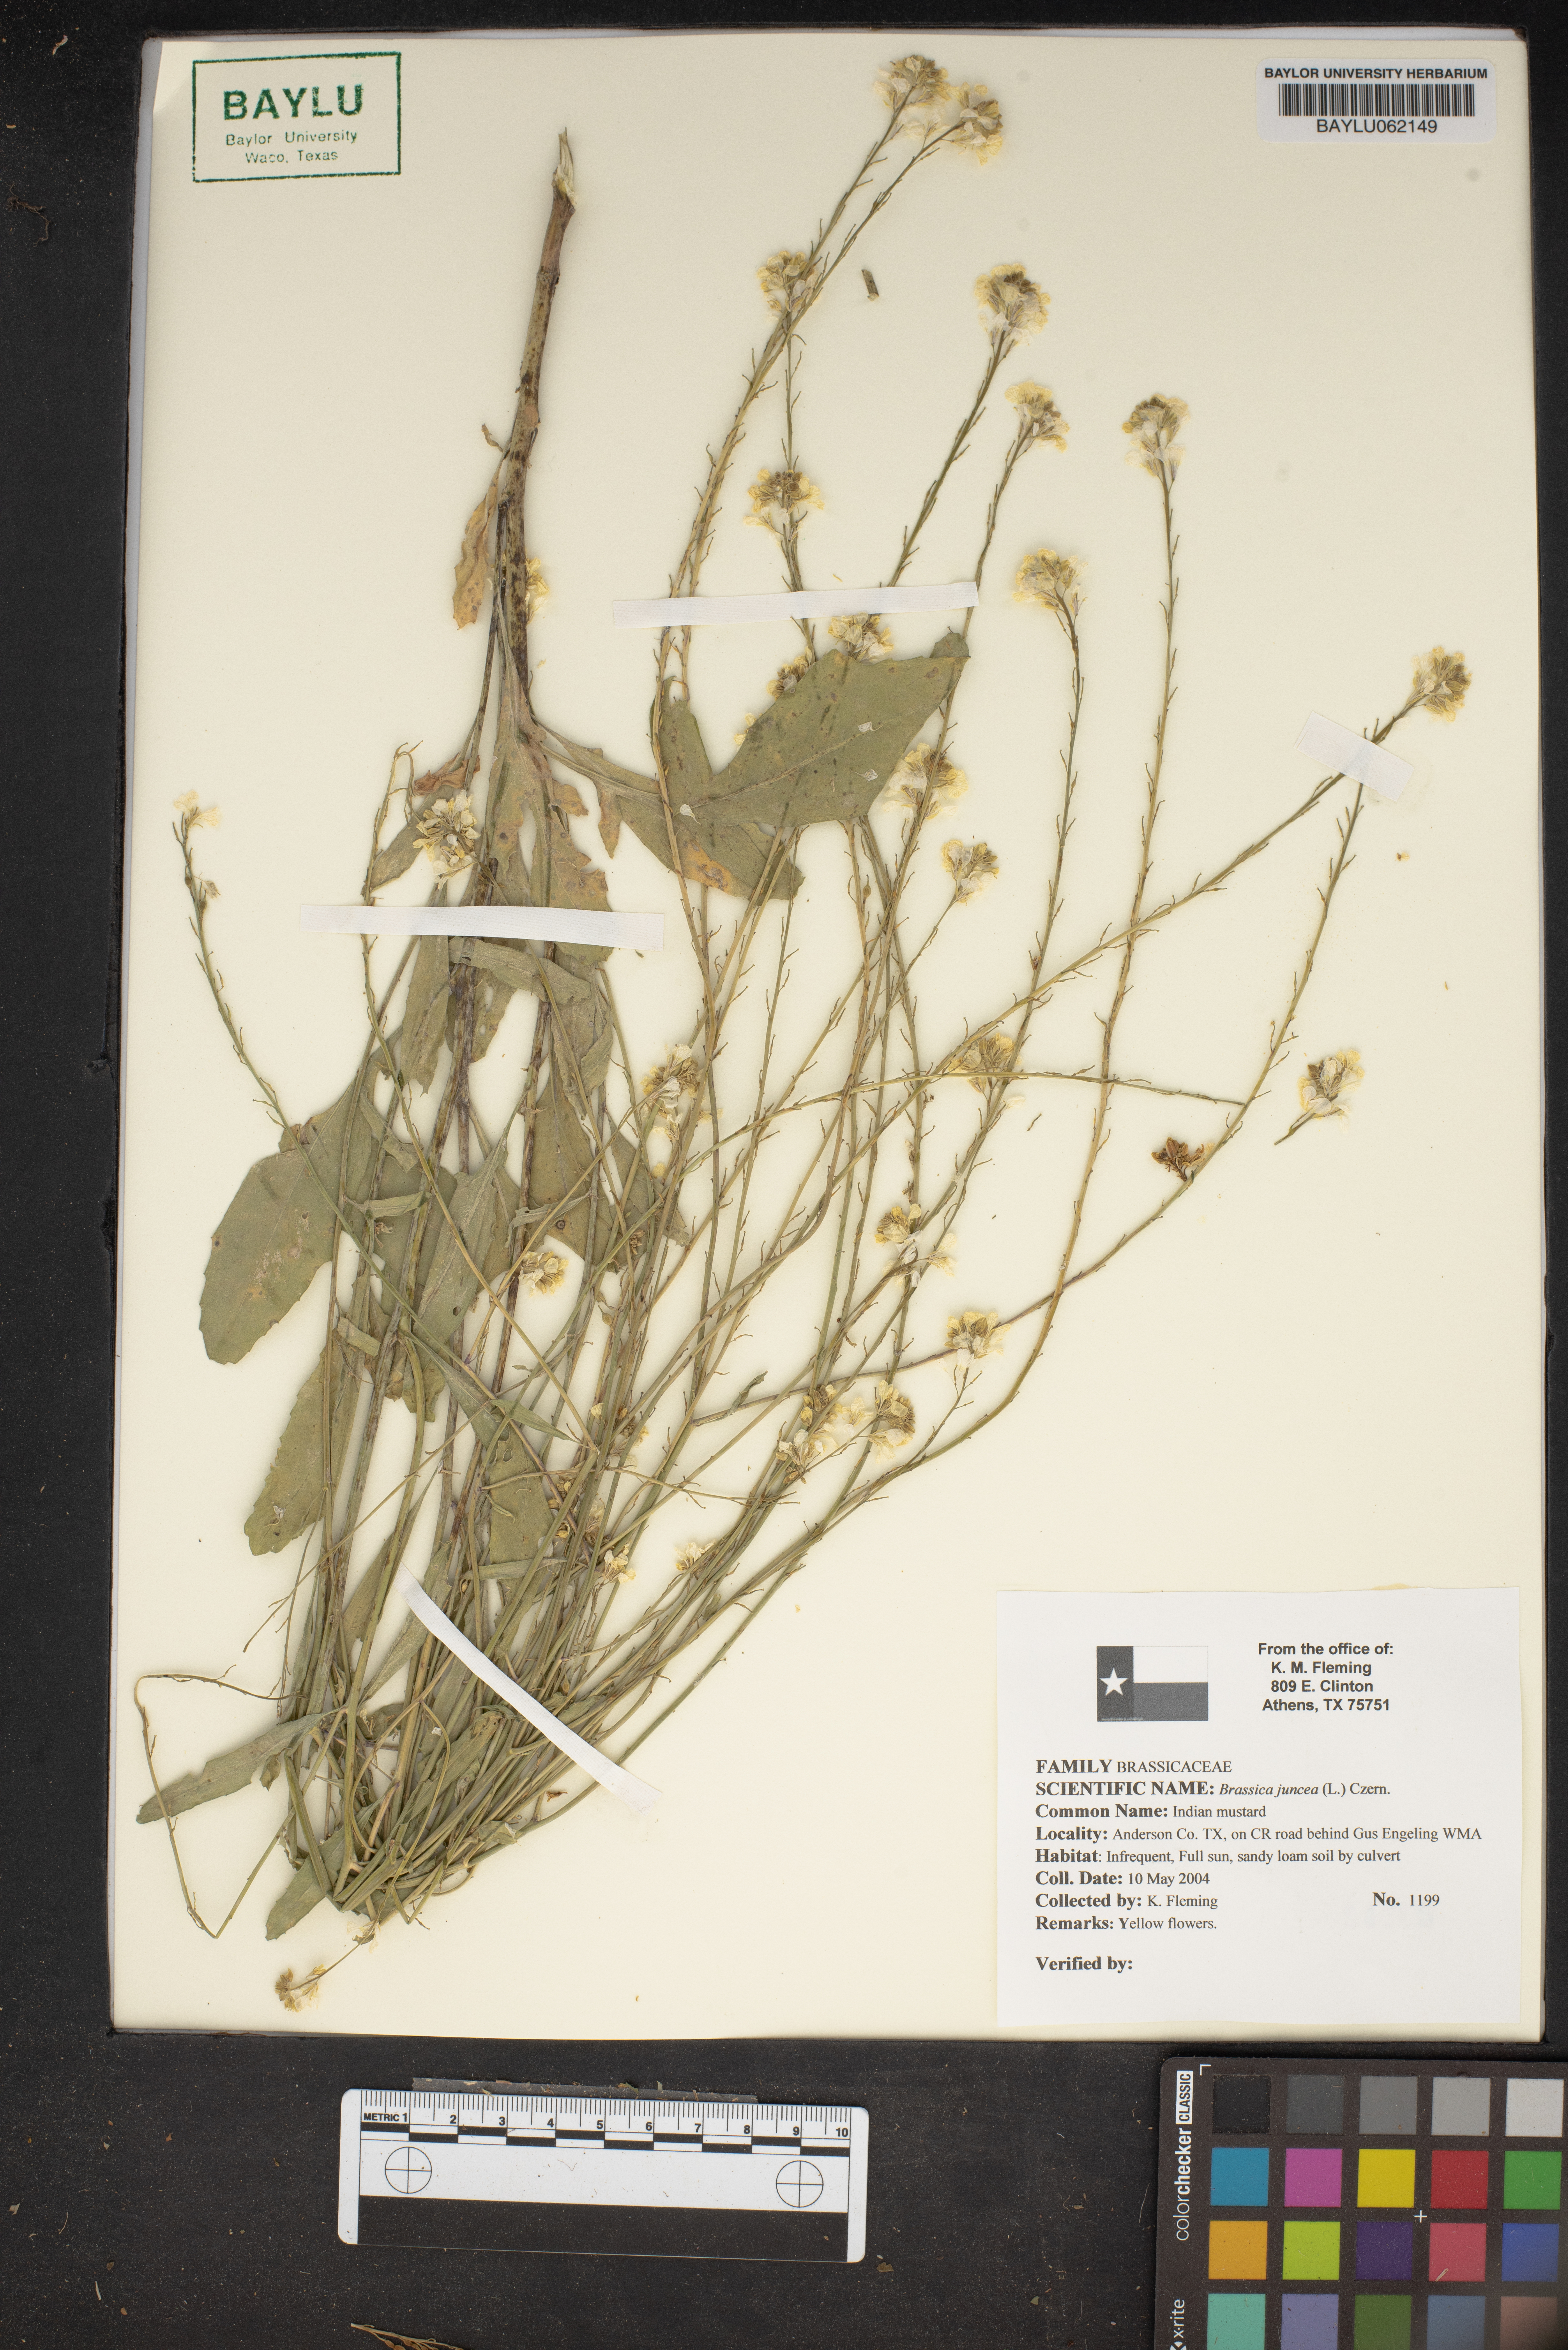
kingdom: Plantae
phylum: Tracheophyta
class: Magnoliopsida
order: Brassicales
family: Brassicaceae
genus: Brassica
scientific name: Brassica juncea
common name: Brown mustard
